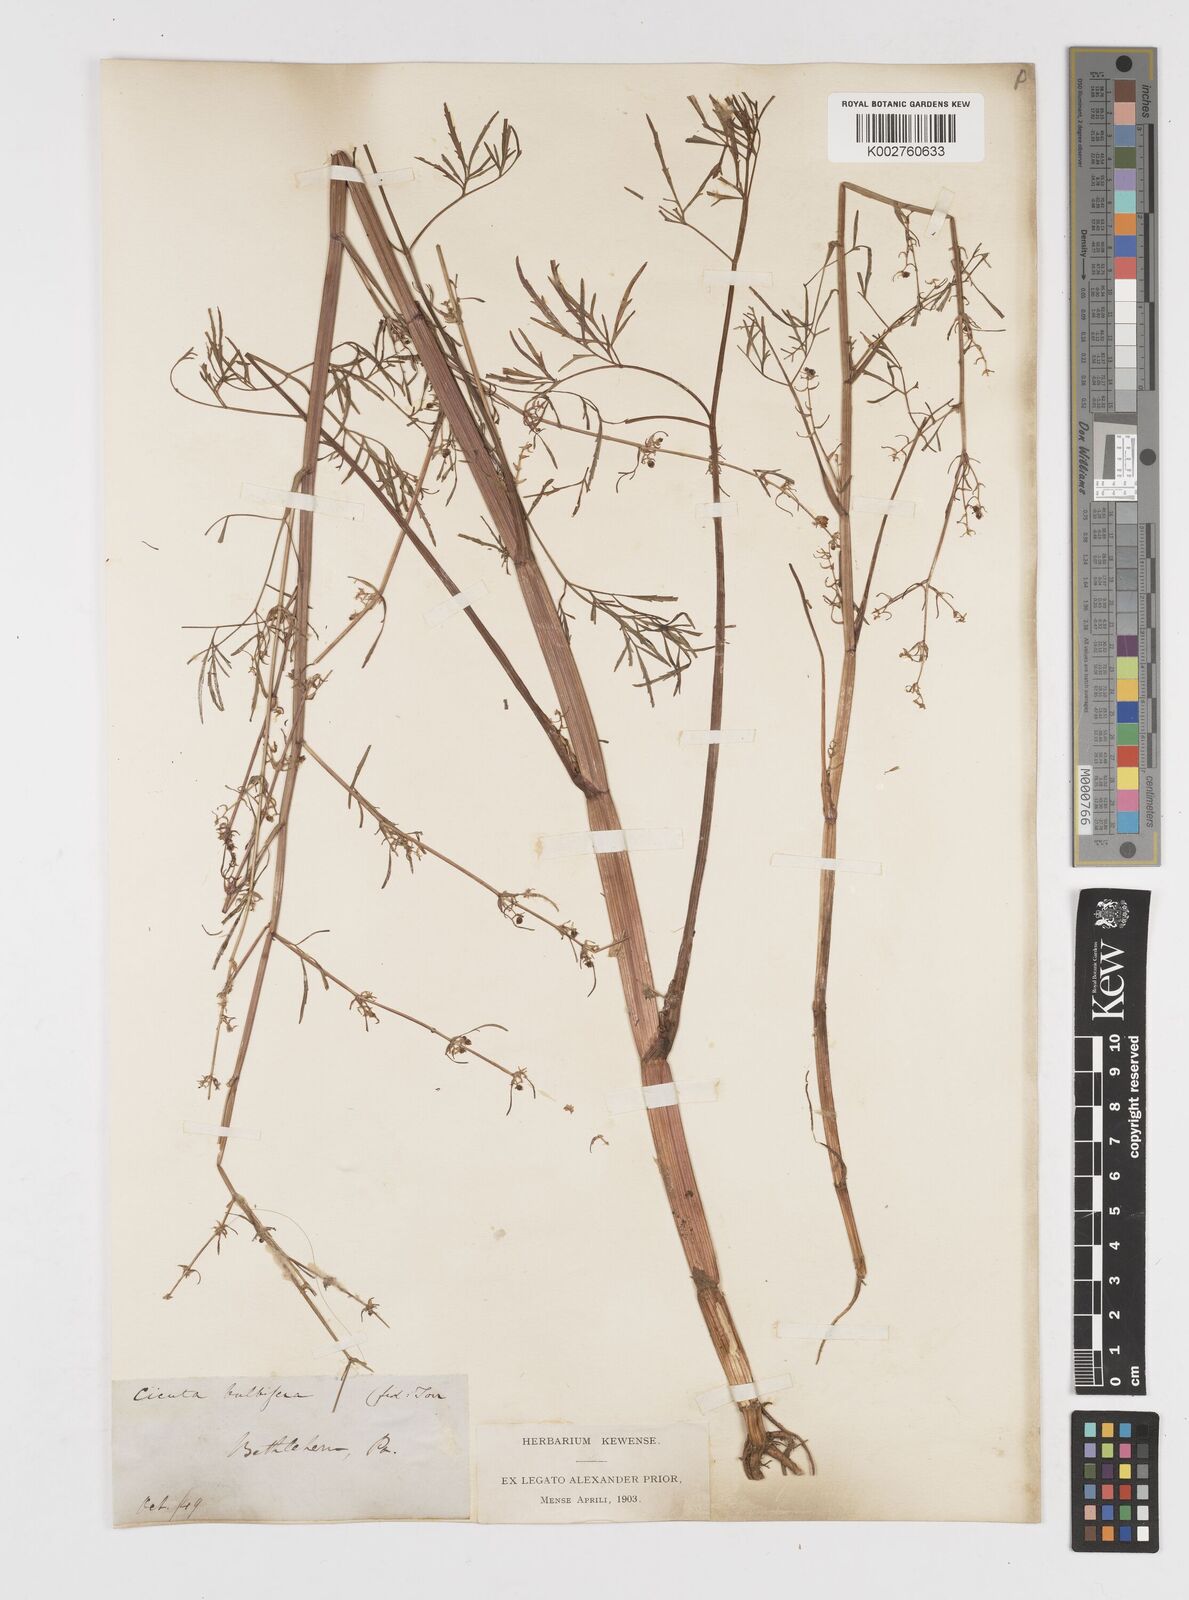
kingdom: Plantae
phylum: Tracheophyta
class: Magnoliopsida
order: Apiales
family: Apiaceae
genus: Cicuta
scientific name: Cicuta bulbifera
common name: Bulb-bearing water-hemlock
